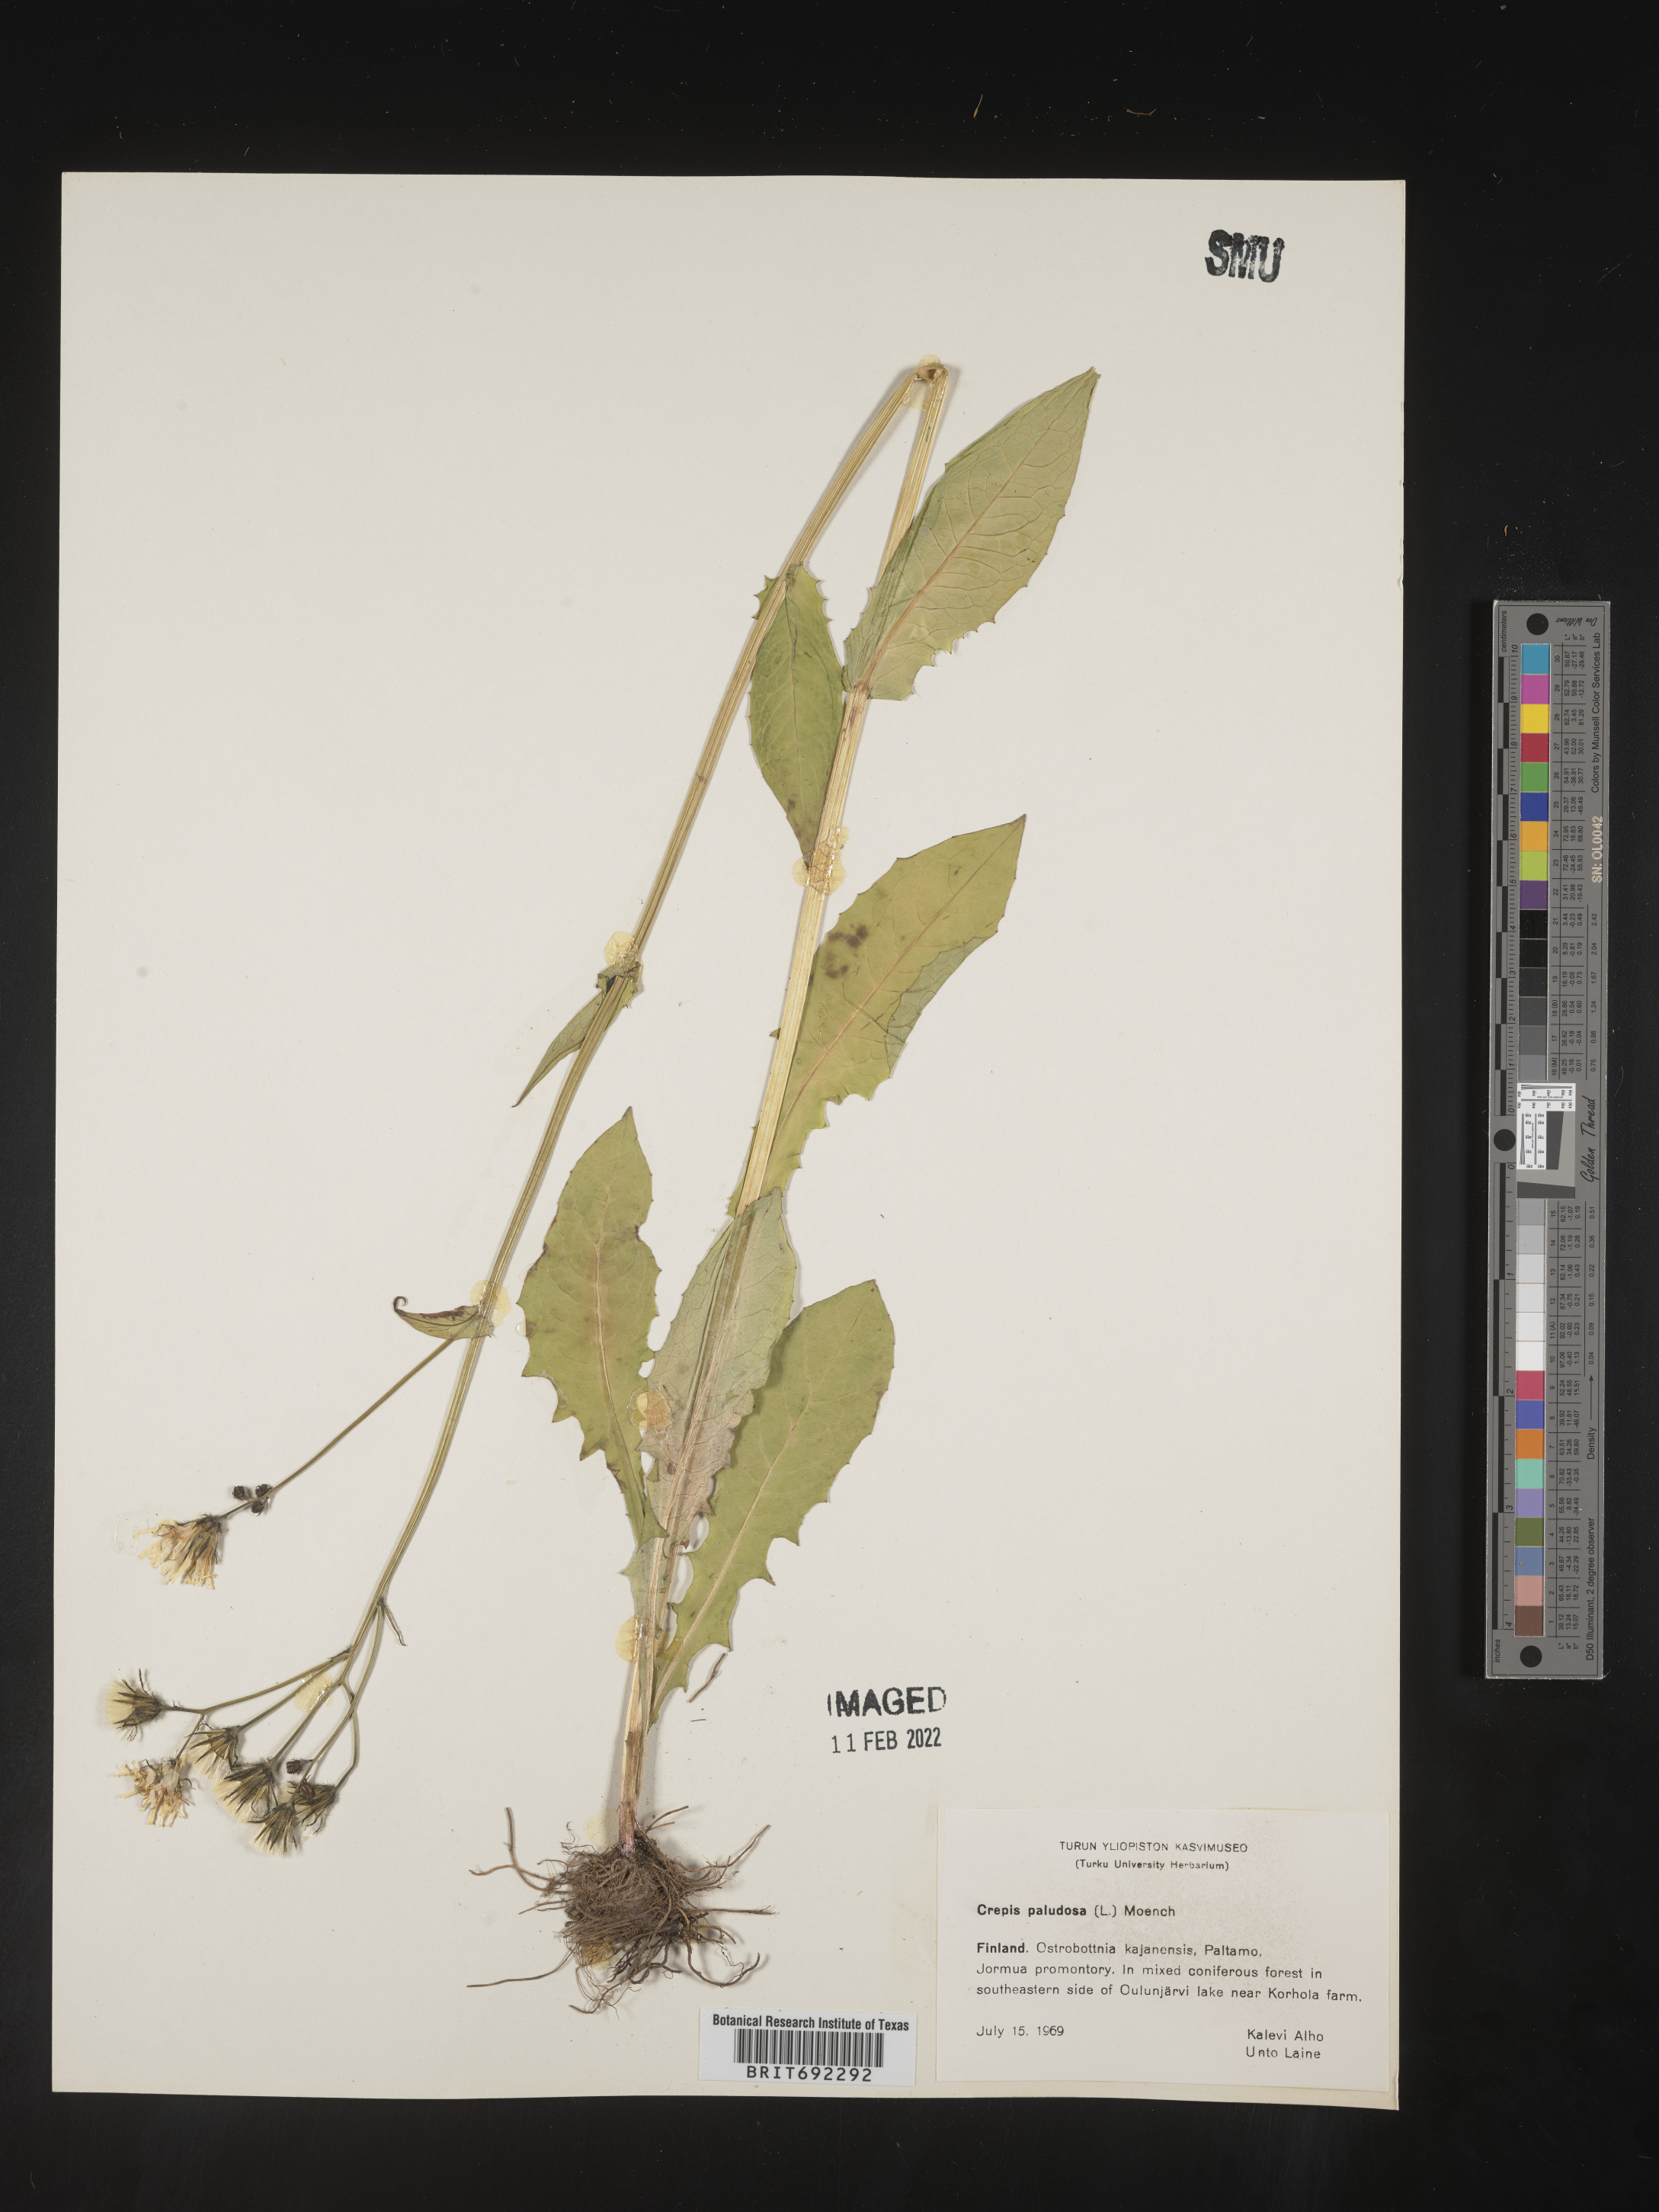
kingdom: Plantae
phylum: Tracheophyta
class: Magnoliopsida
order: Asterales
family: Asteraceae
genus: Crepis
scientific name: Crepis
